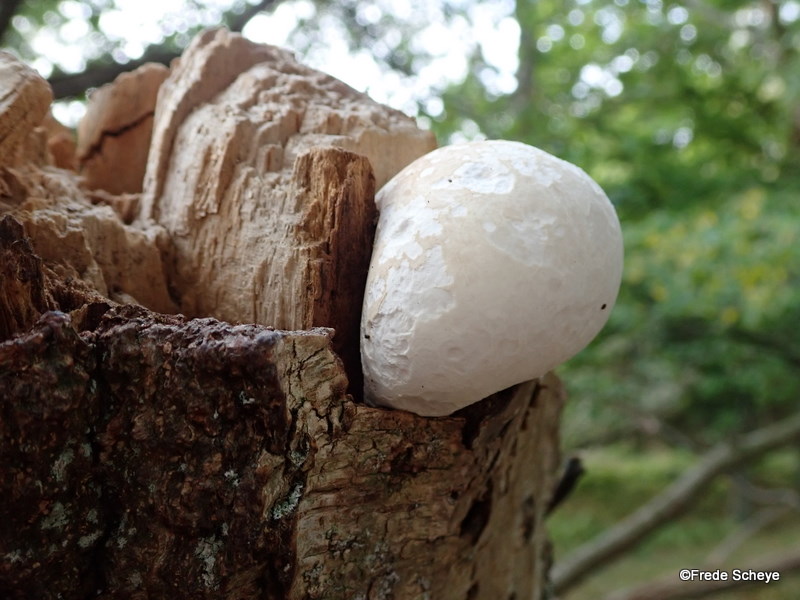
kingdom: Fungi
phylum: Basidiomycota
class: Agaricomycetes
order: Polyporales
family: Fomitopsidaceae
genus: Fomitopsis
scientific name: Fomitopsis betulina
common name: birkeporesvamp
